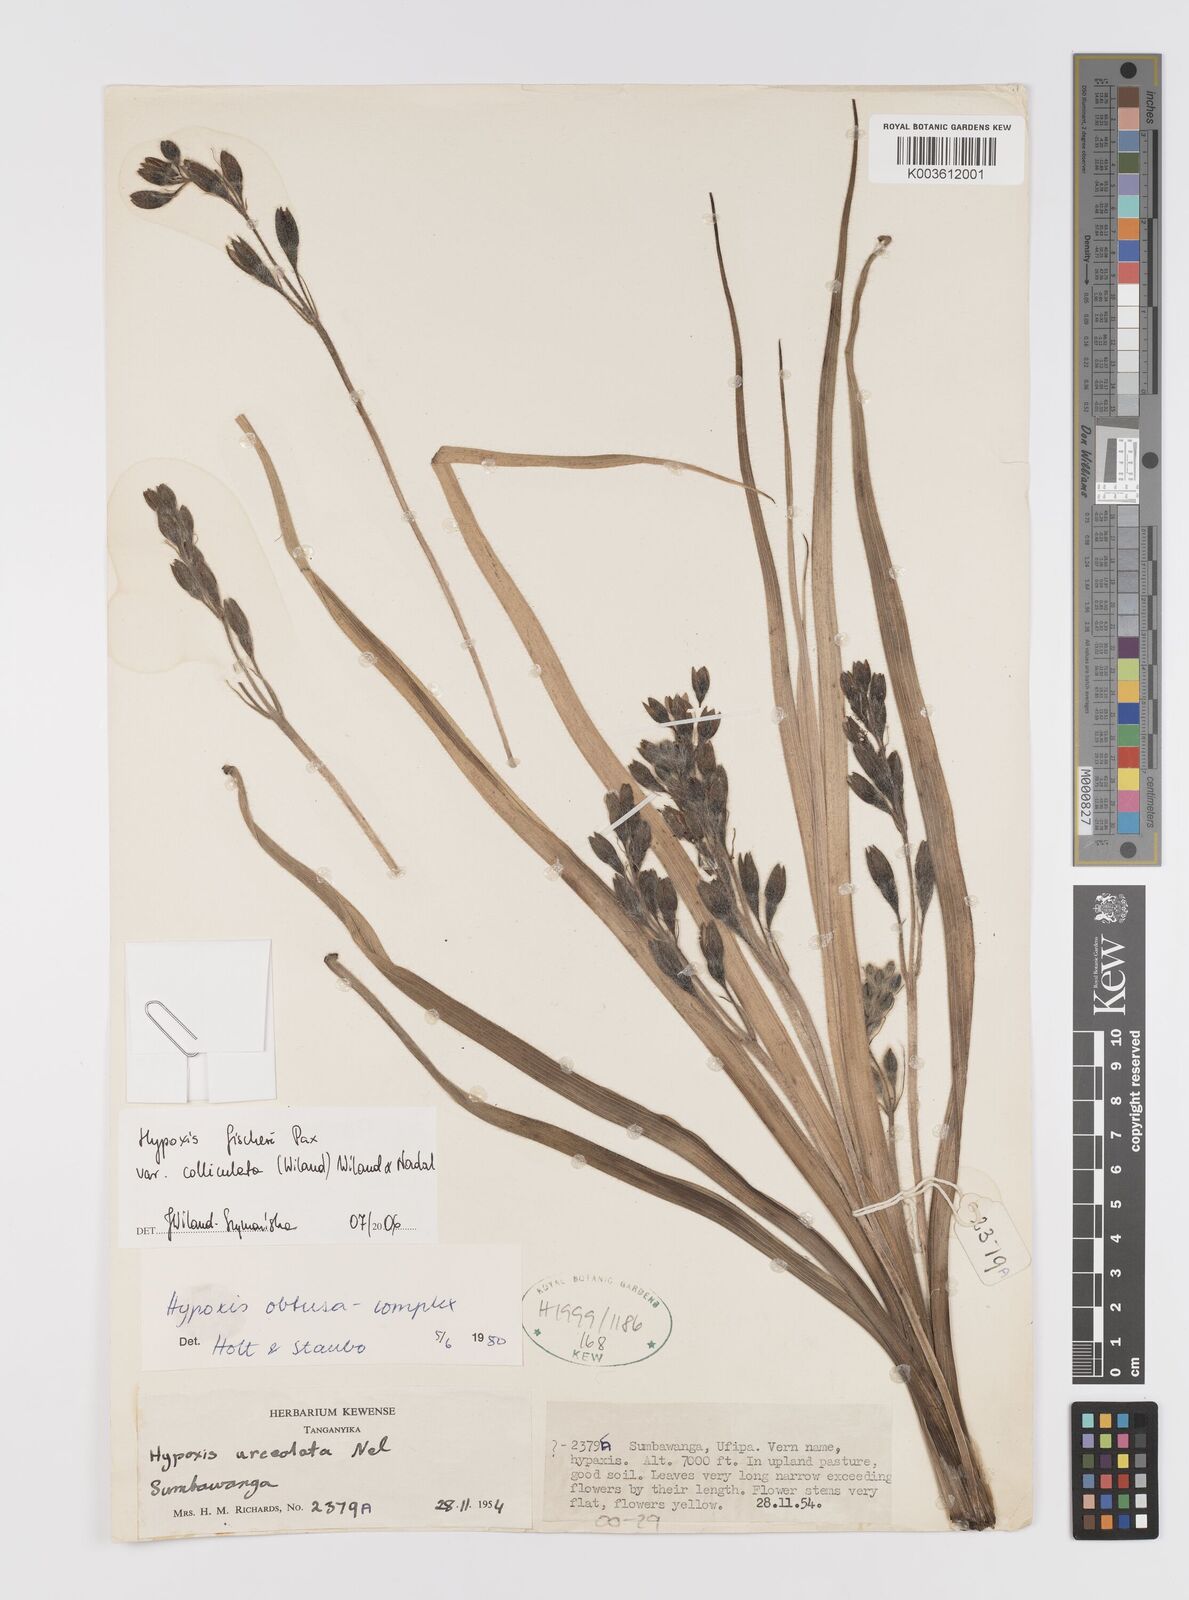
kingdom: Plantae
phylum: Tracheophyta
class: Liliopsida
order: Asparagales
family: Hypoxidaceae
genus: Hypoxis
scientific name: Hypoxis fischeri
